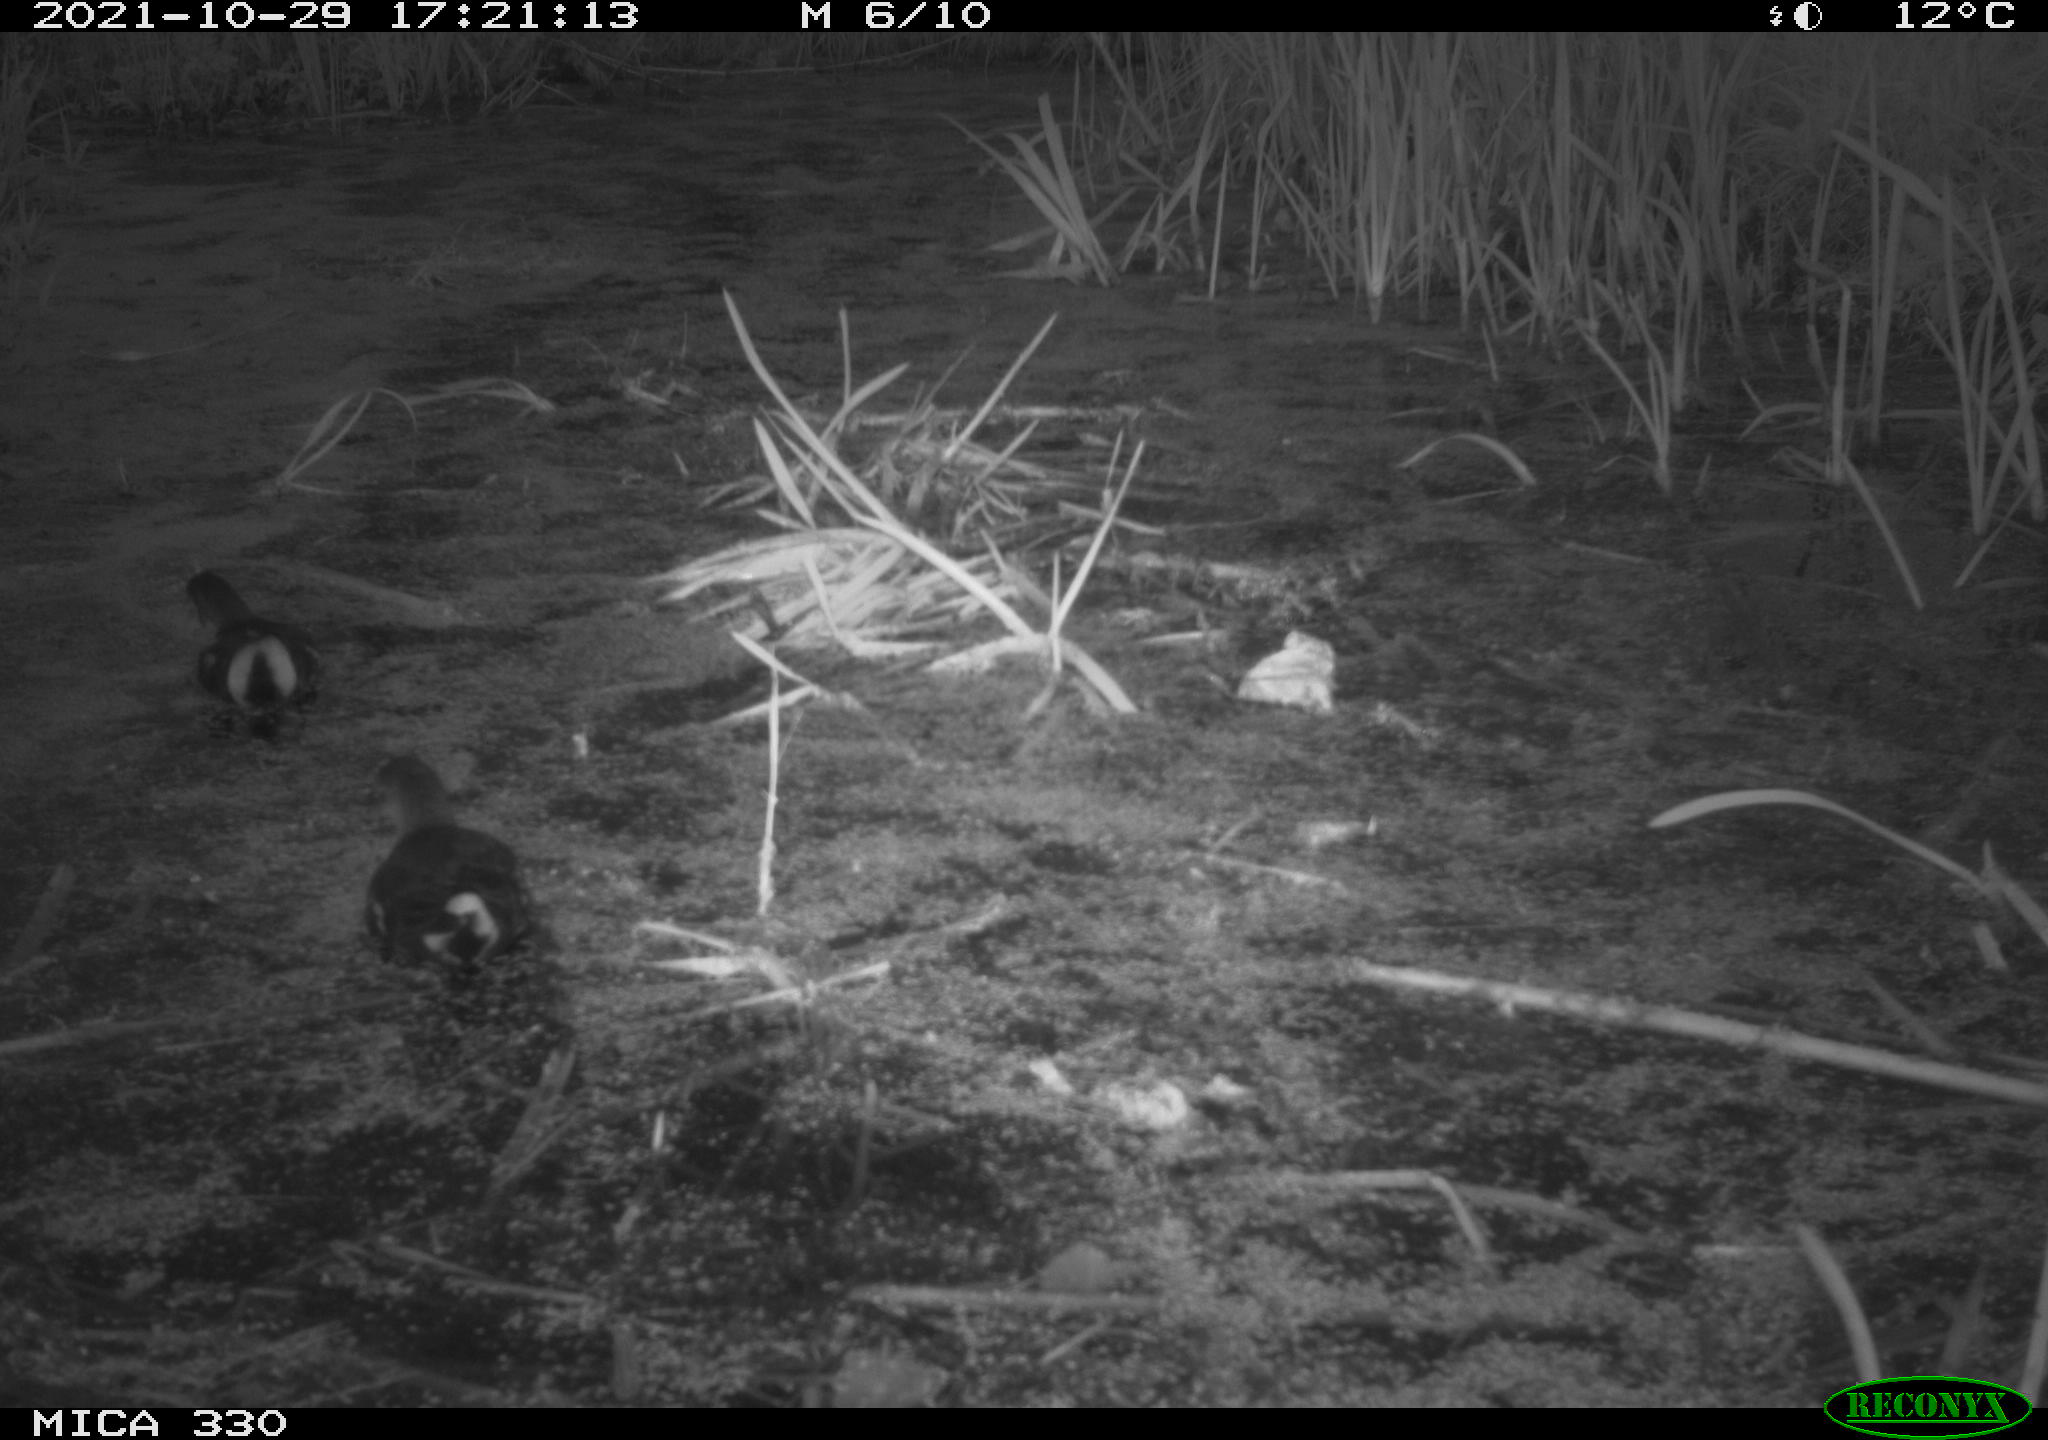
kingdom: Animalia
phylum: Chordata
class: Aves
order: Gruiformes
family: Rallidae
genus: Gallinula
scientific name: Gallinula chloropus
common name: Common moorhen
